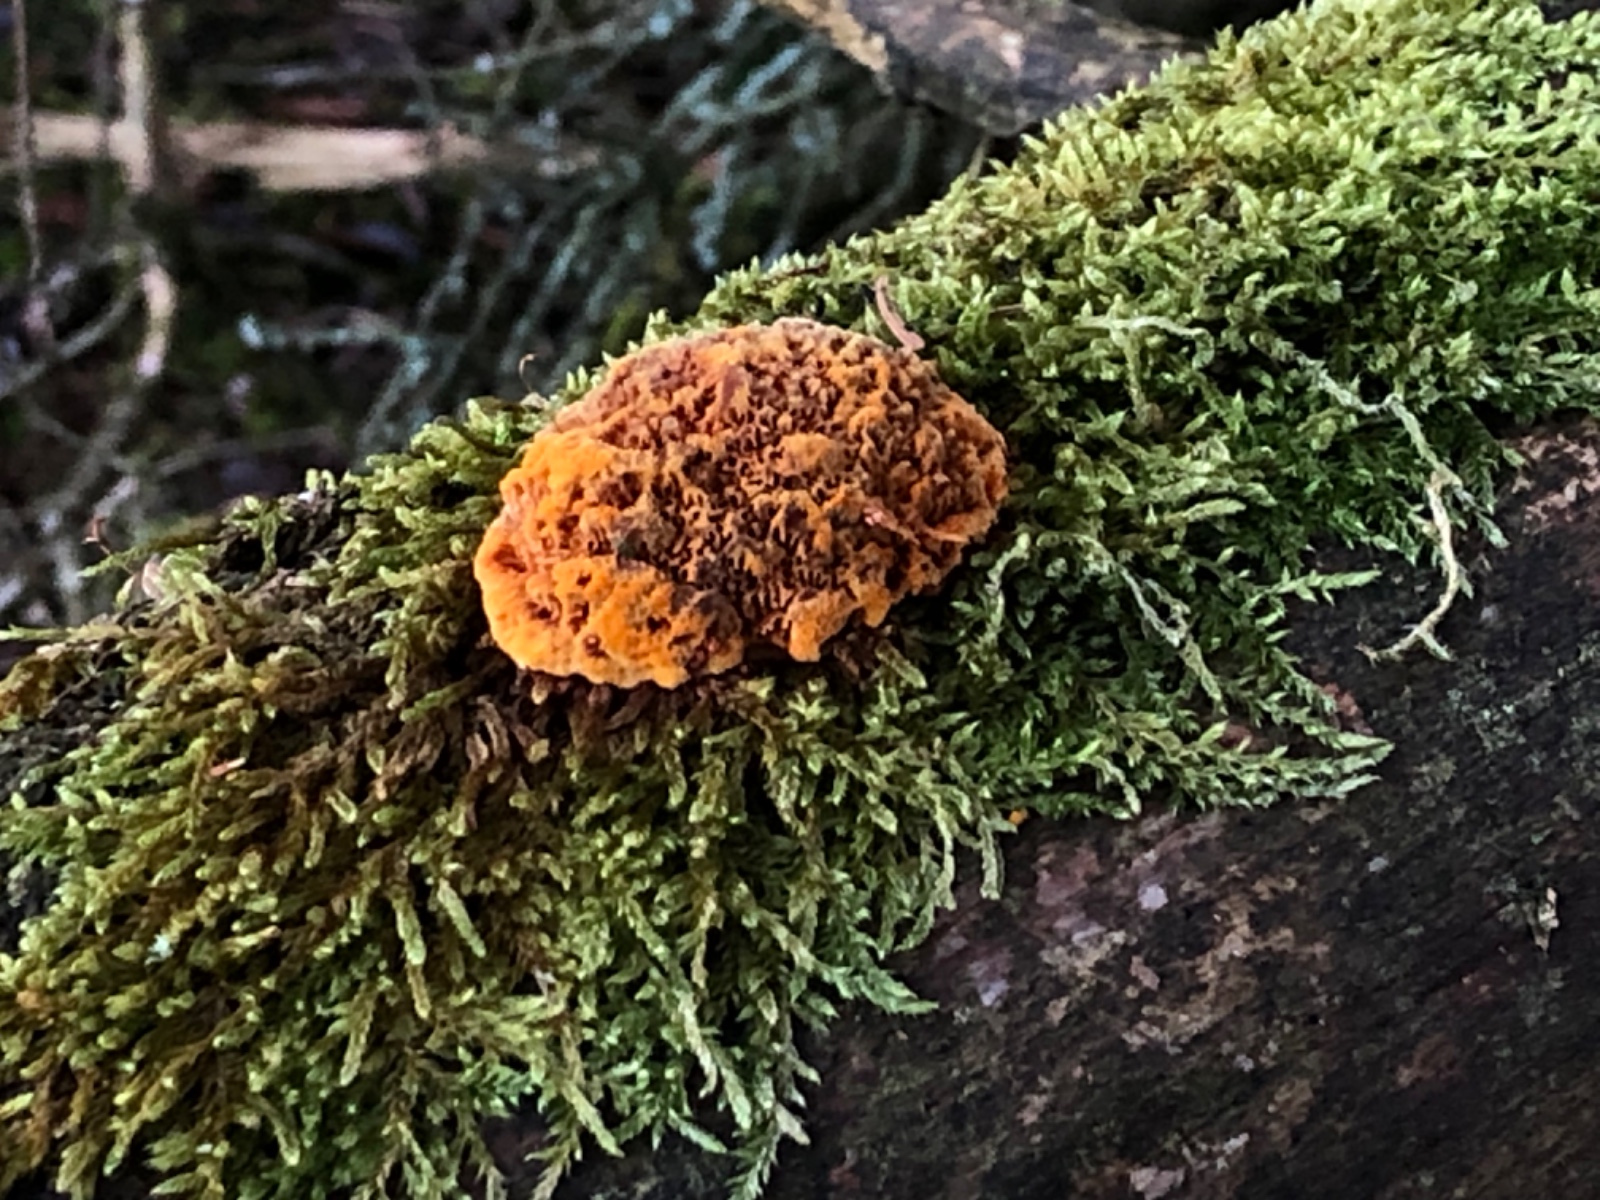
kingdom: Fungi
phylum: Basidiomycota
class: Agaricomycetes
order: Gloeophyllales
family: Gloeophyllaceae
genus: Gloeophyllum
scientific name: Gloeophyllum odoratum
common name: duftende korkhat
